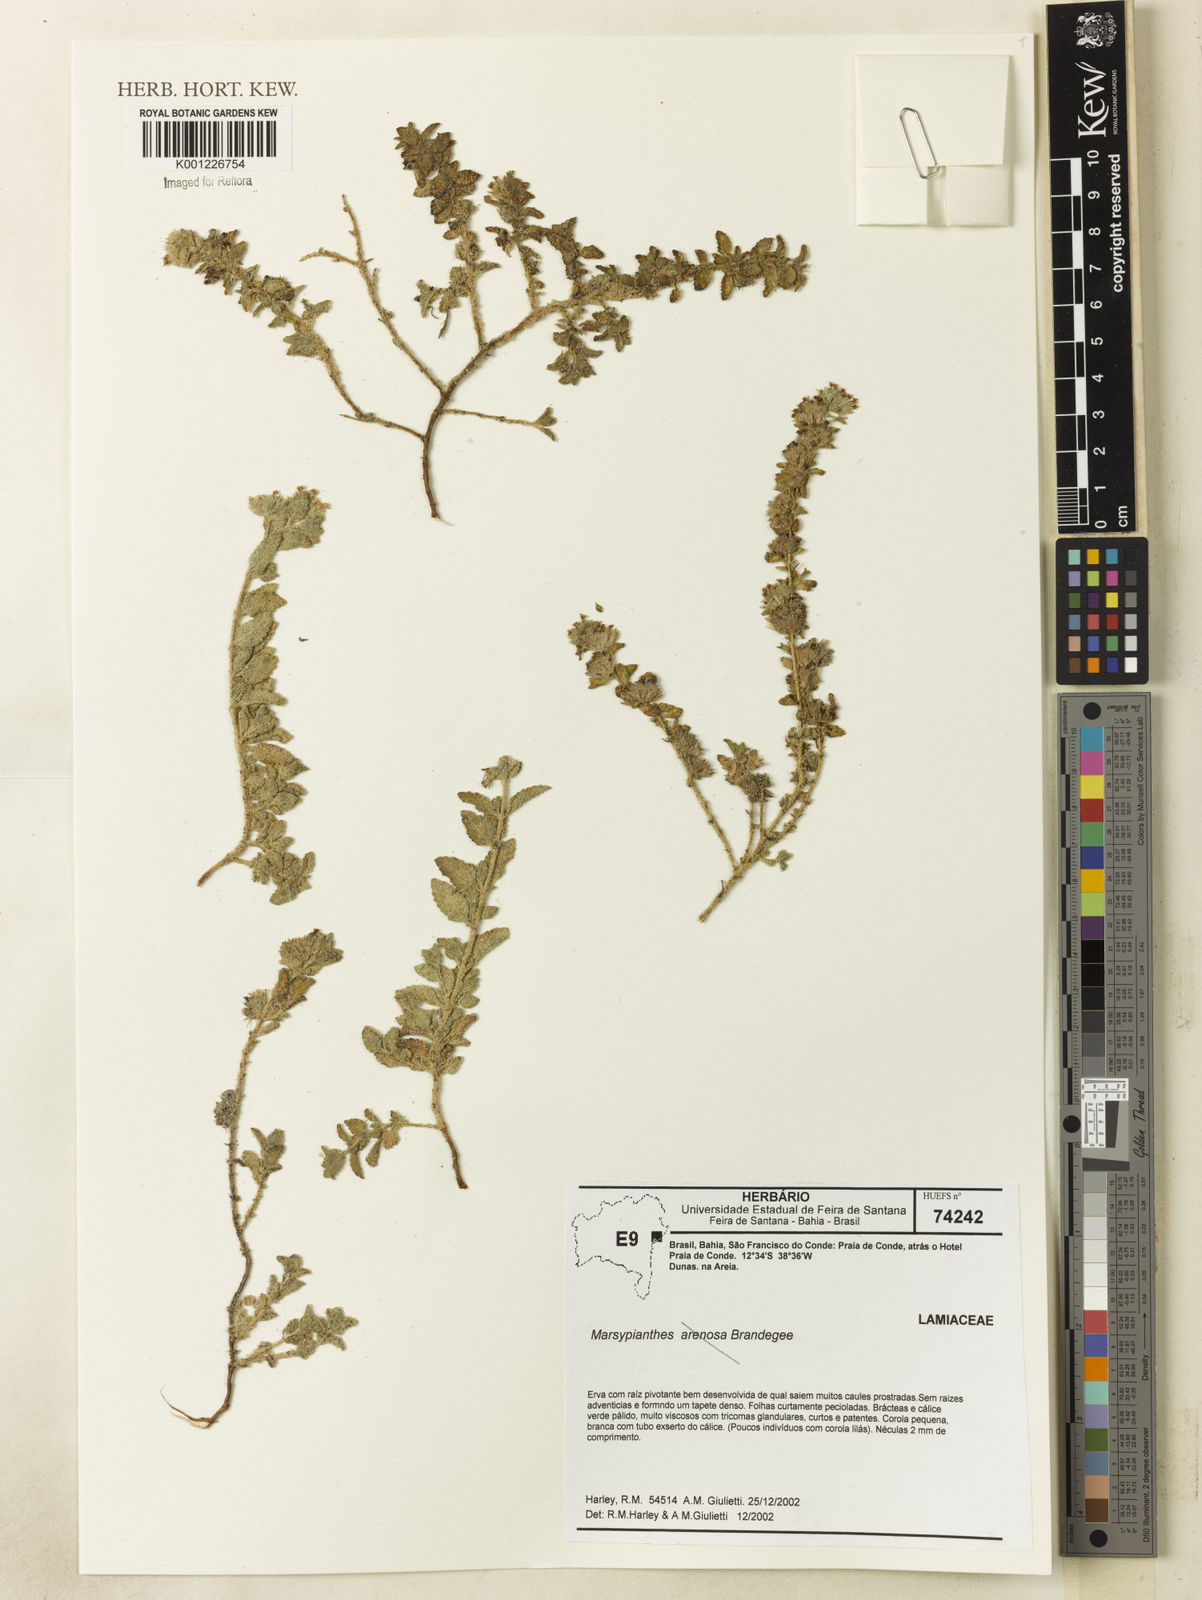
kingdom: Plantae
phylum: Tracheophyta
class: Magnoliopsida
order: Lamiales
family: Lamiaceae
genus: Marsypianthes
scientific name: Marsypianthes
